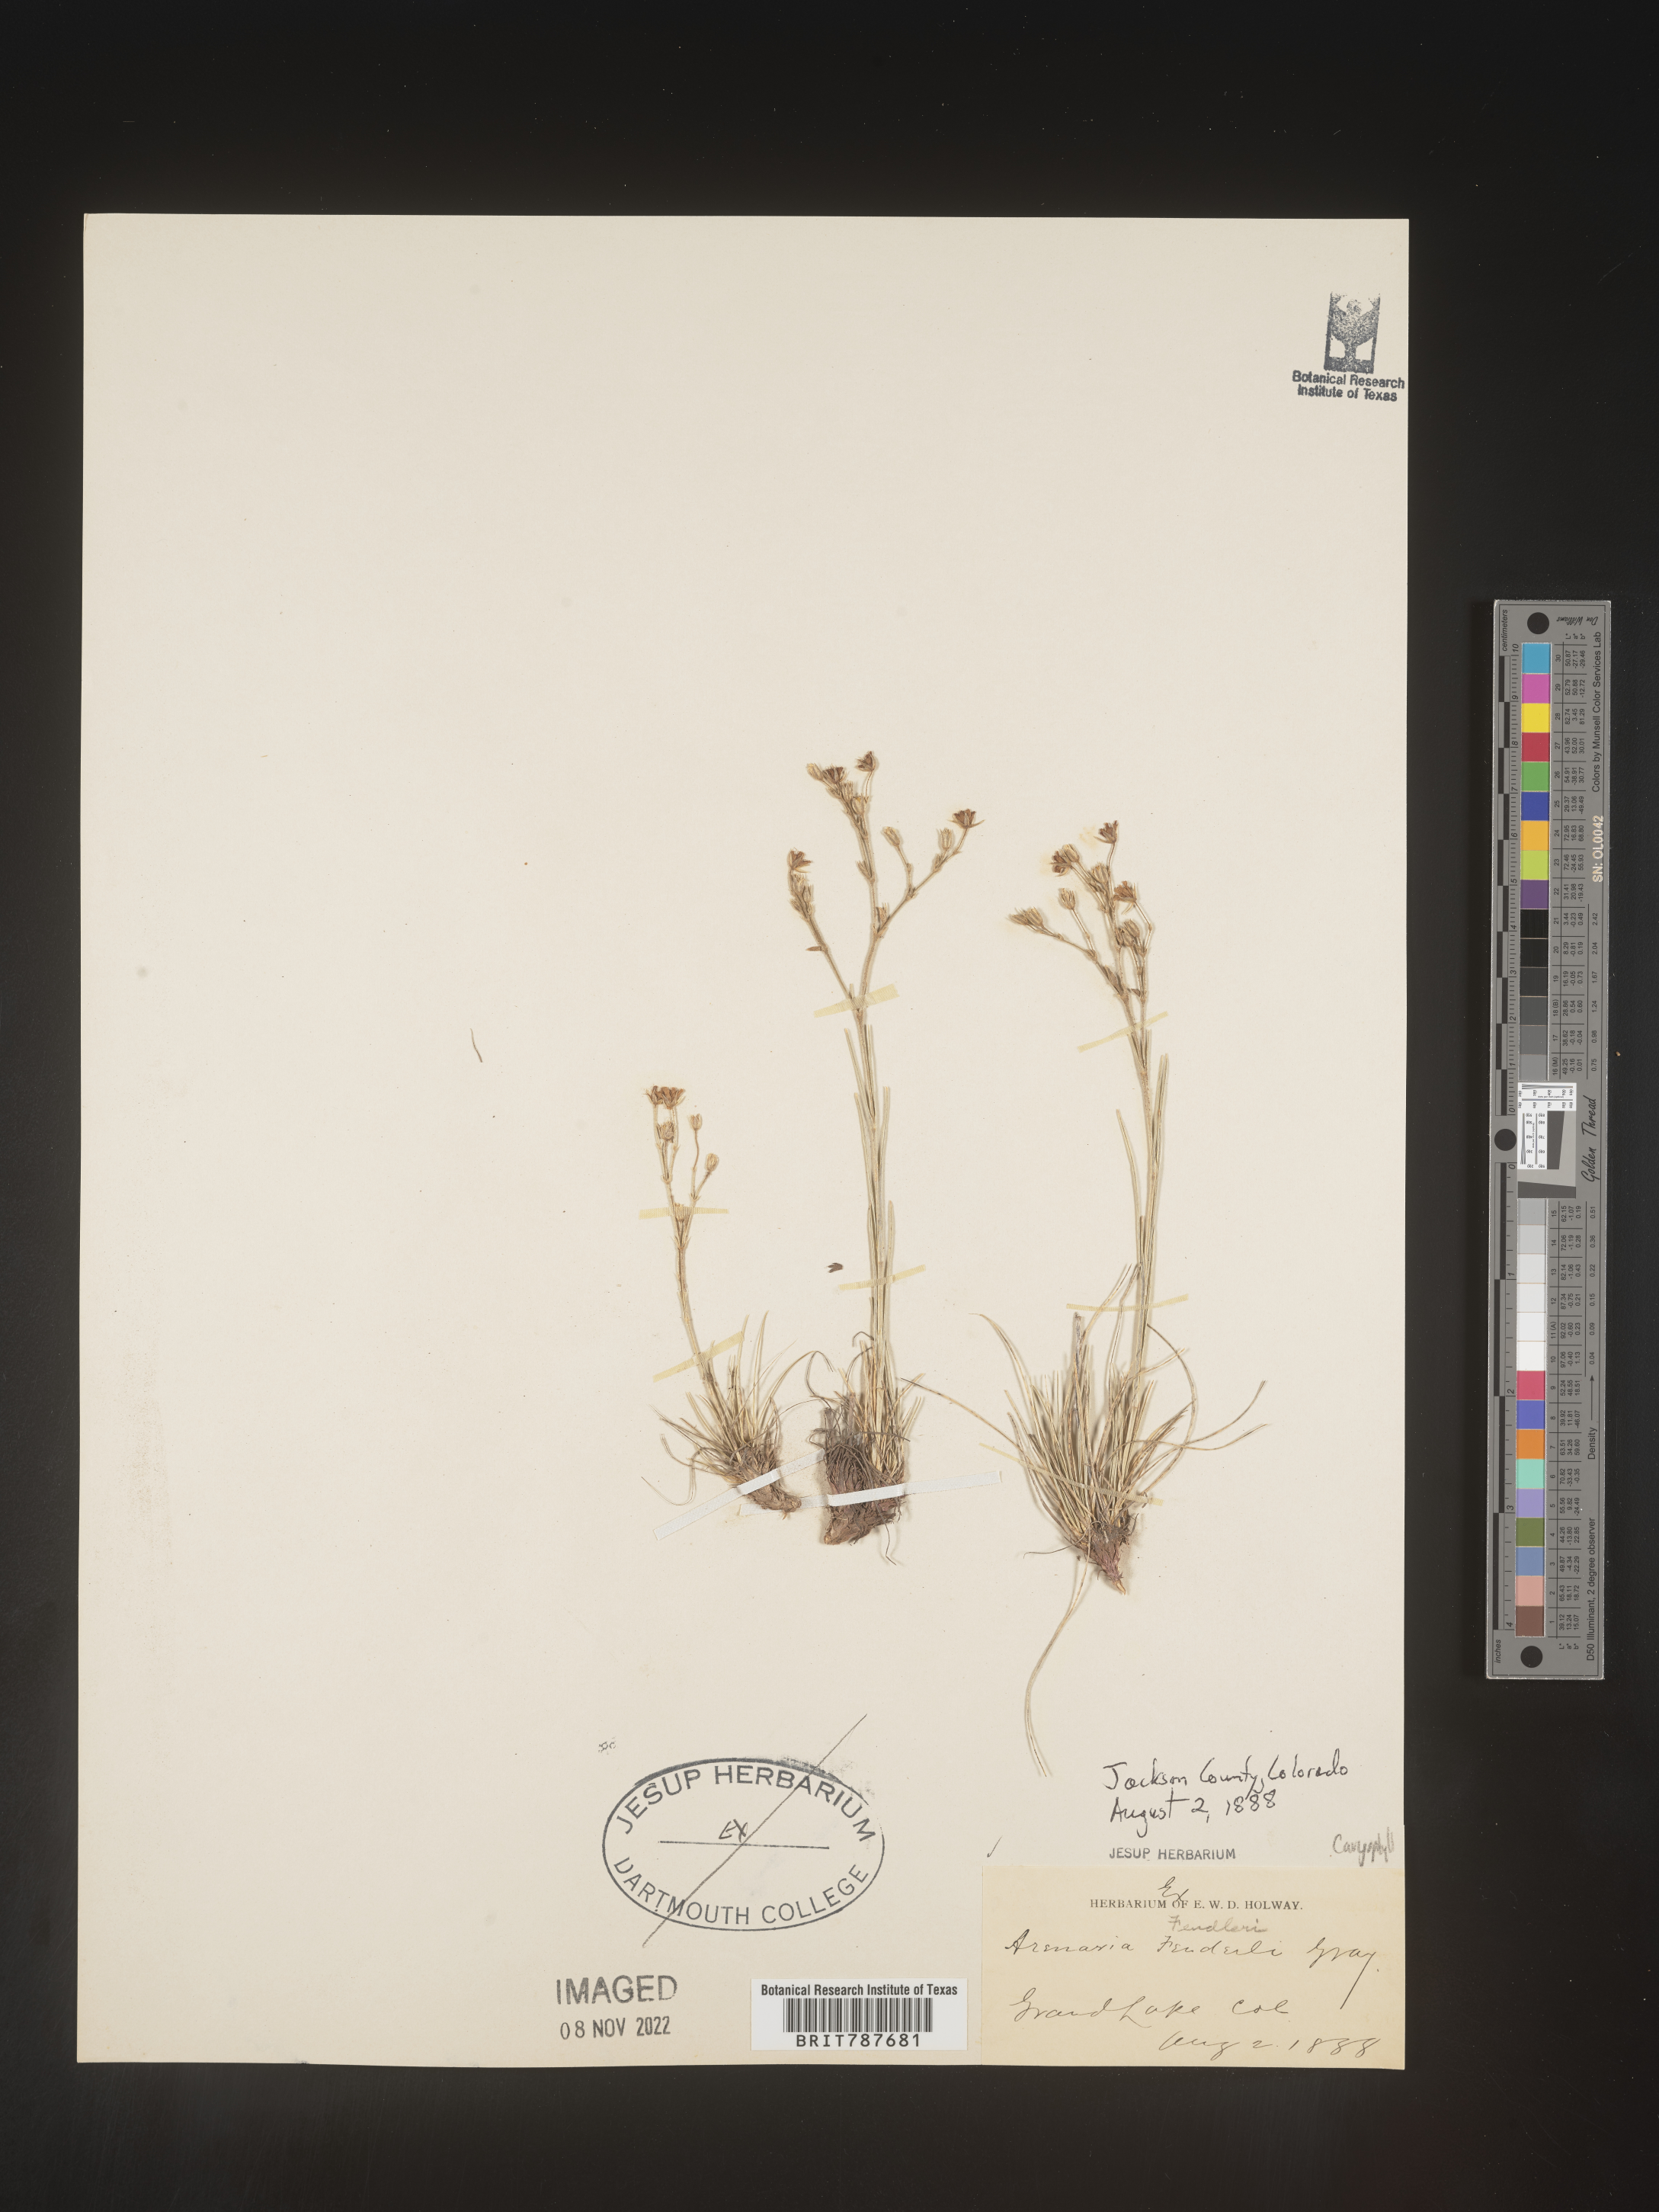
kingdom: Plantae
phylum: Tracheophyta
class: Magnoliopsida
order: Caryophyllales
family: Caryophyllaceae
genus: Arenaria
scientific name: Arenaria
